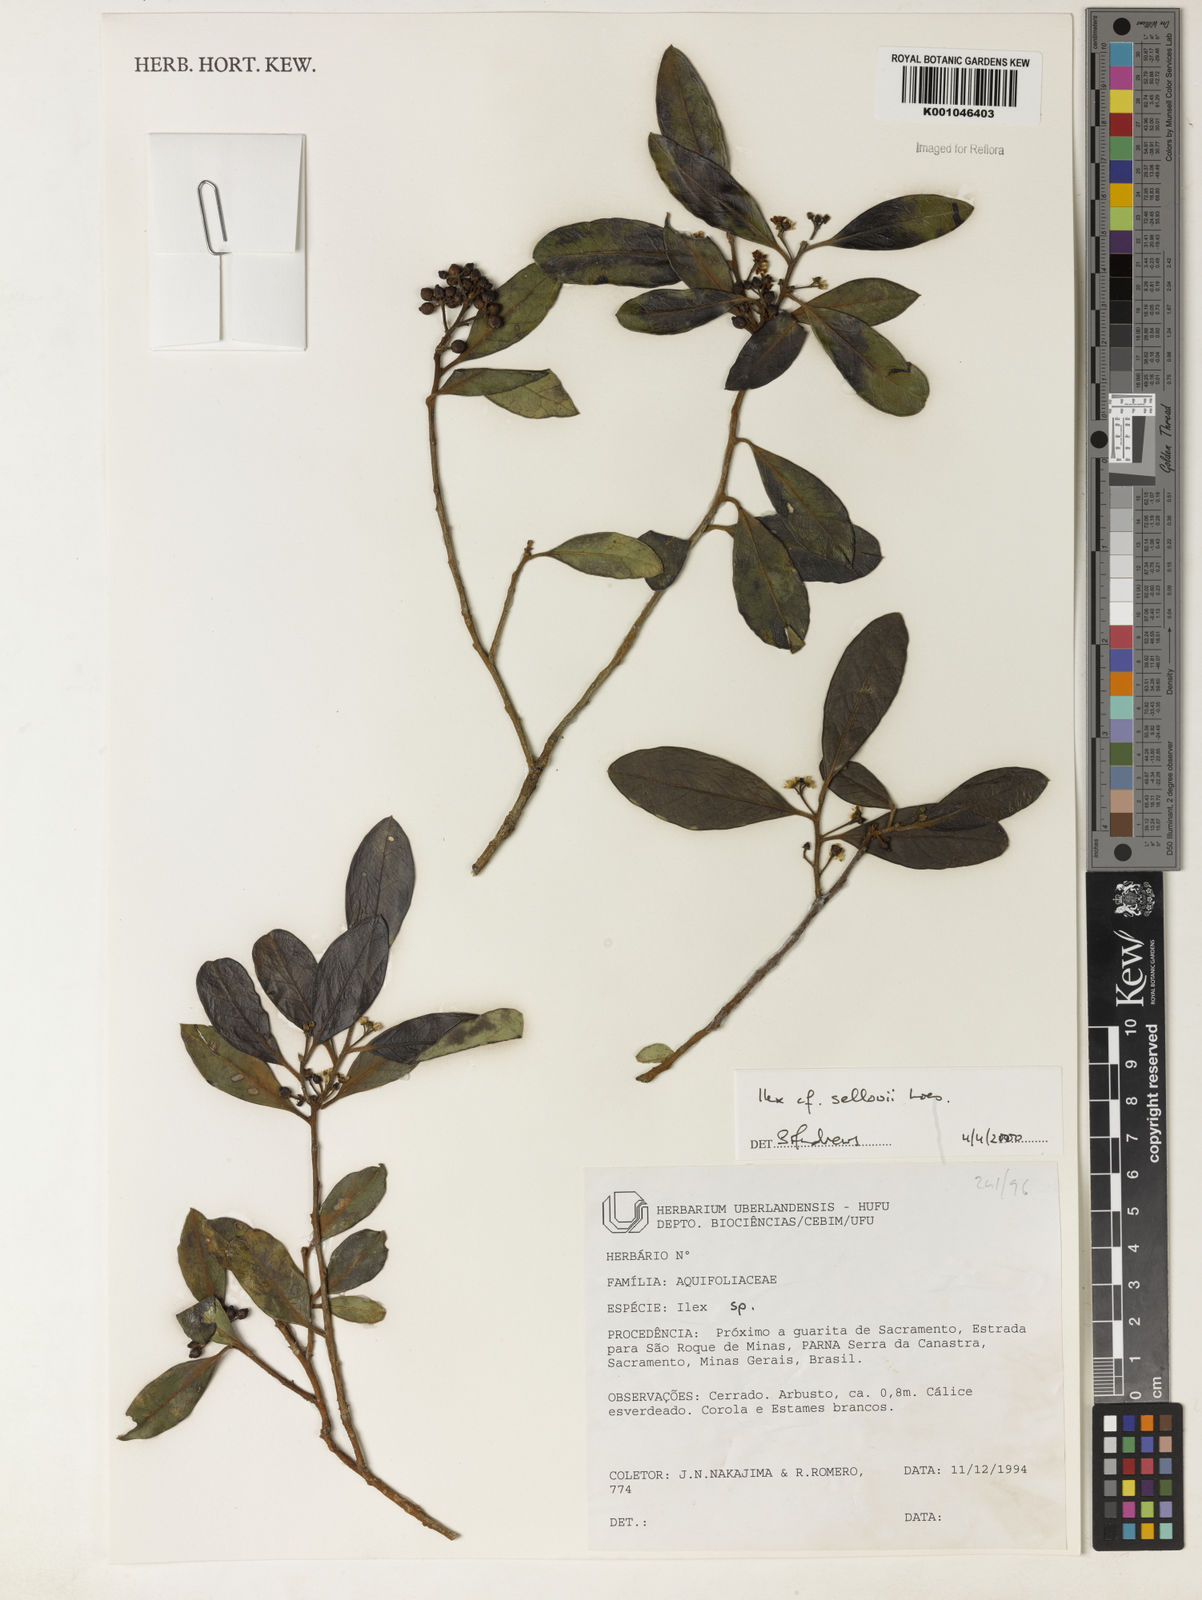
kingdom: Plantae
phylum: Tracheophyta
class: Magnoliopsida
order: Aquifoliales
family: Aquifoliaceae
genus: Ilex
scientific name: Ilex
